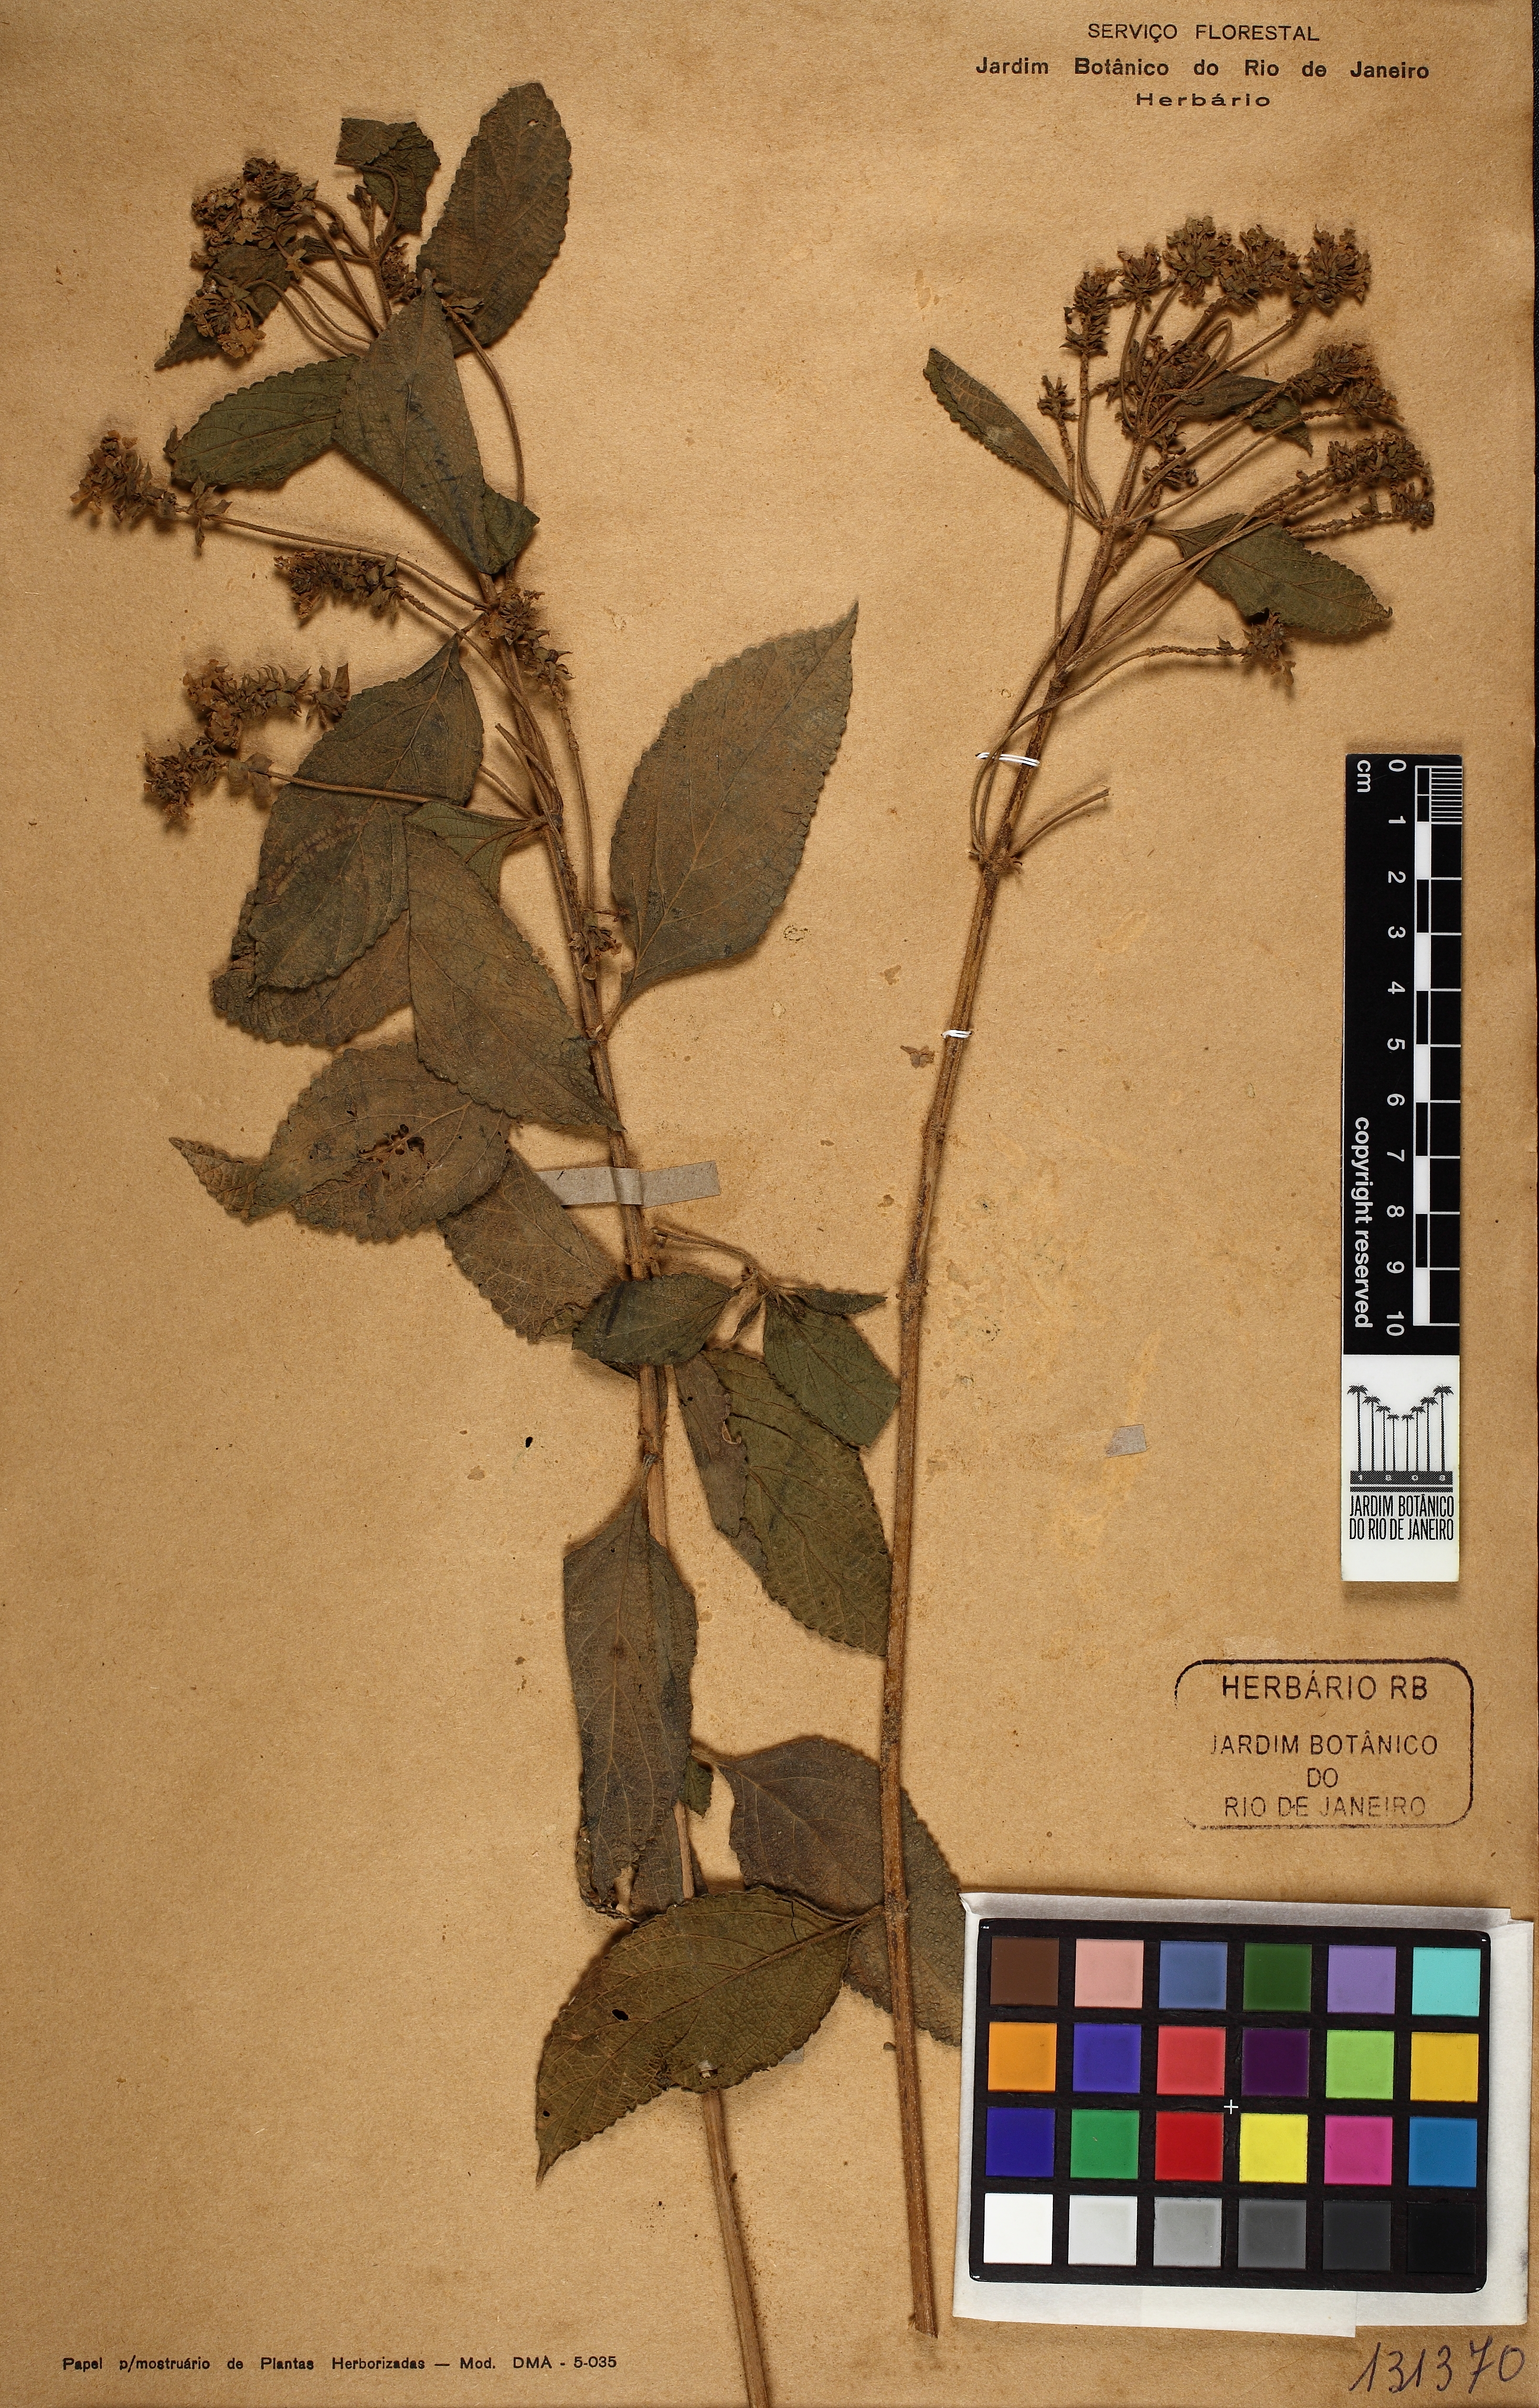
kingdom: Plantae
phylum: Tracheophyta
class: Magnoliopsida
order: Lamiales
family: Verbenaceae
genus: Lippia
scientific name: Lippia lippioides
